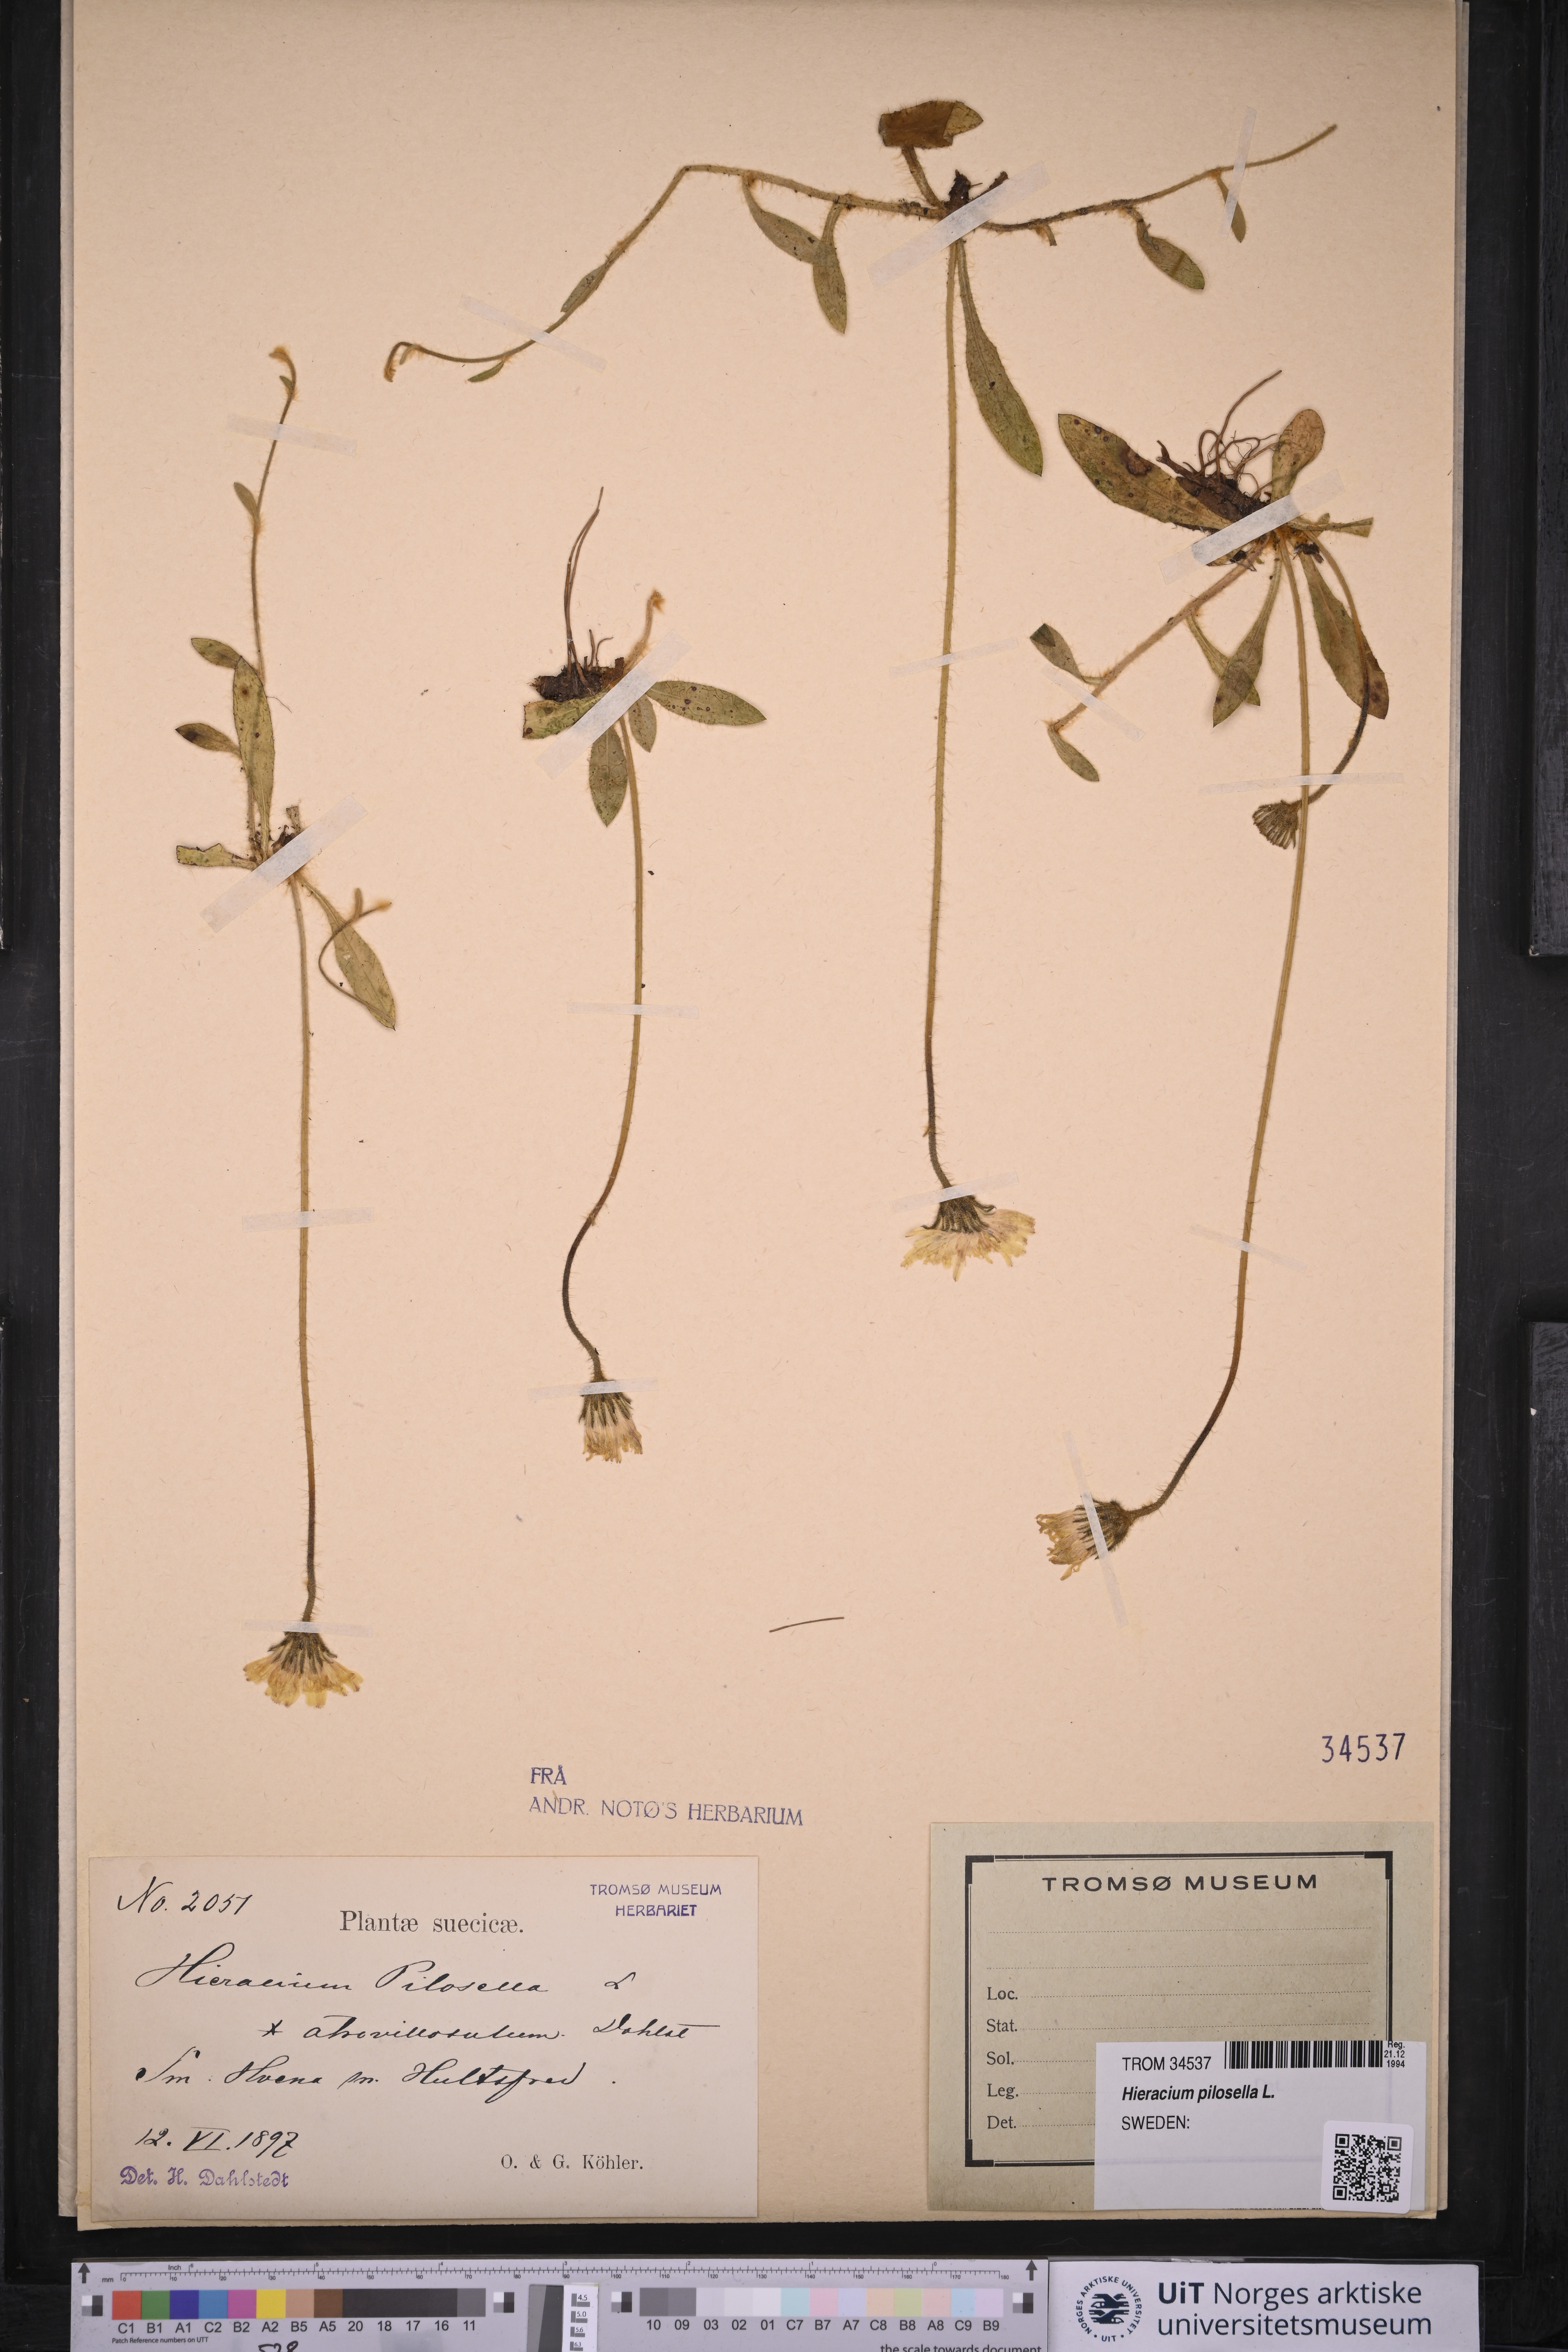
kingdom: Plantae
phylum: Tracheophyta
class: Magnoliopsida
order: Asterales
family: Asteraceae
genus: Pilosella
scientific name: Pilosella officinarum
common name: Mouse-ear hawkweed
